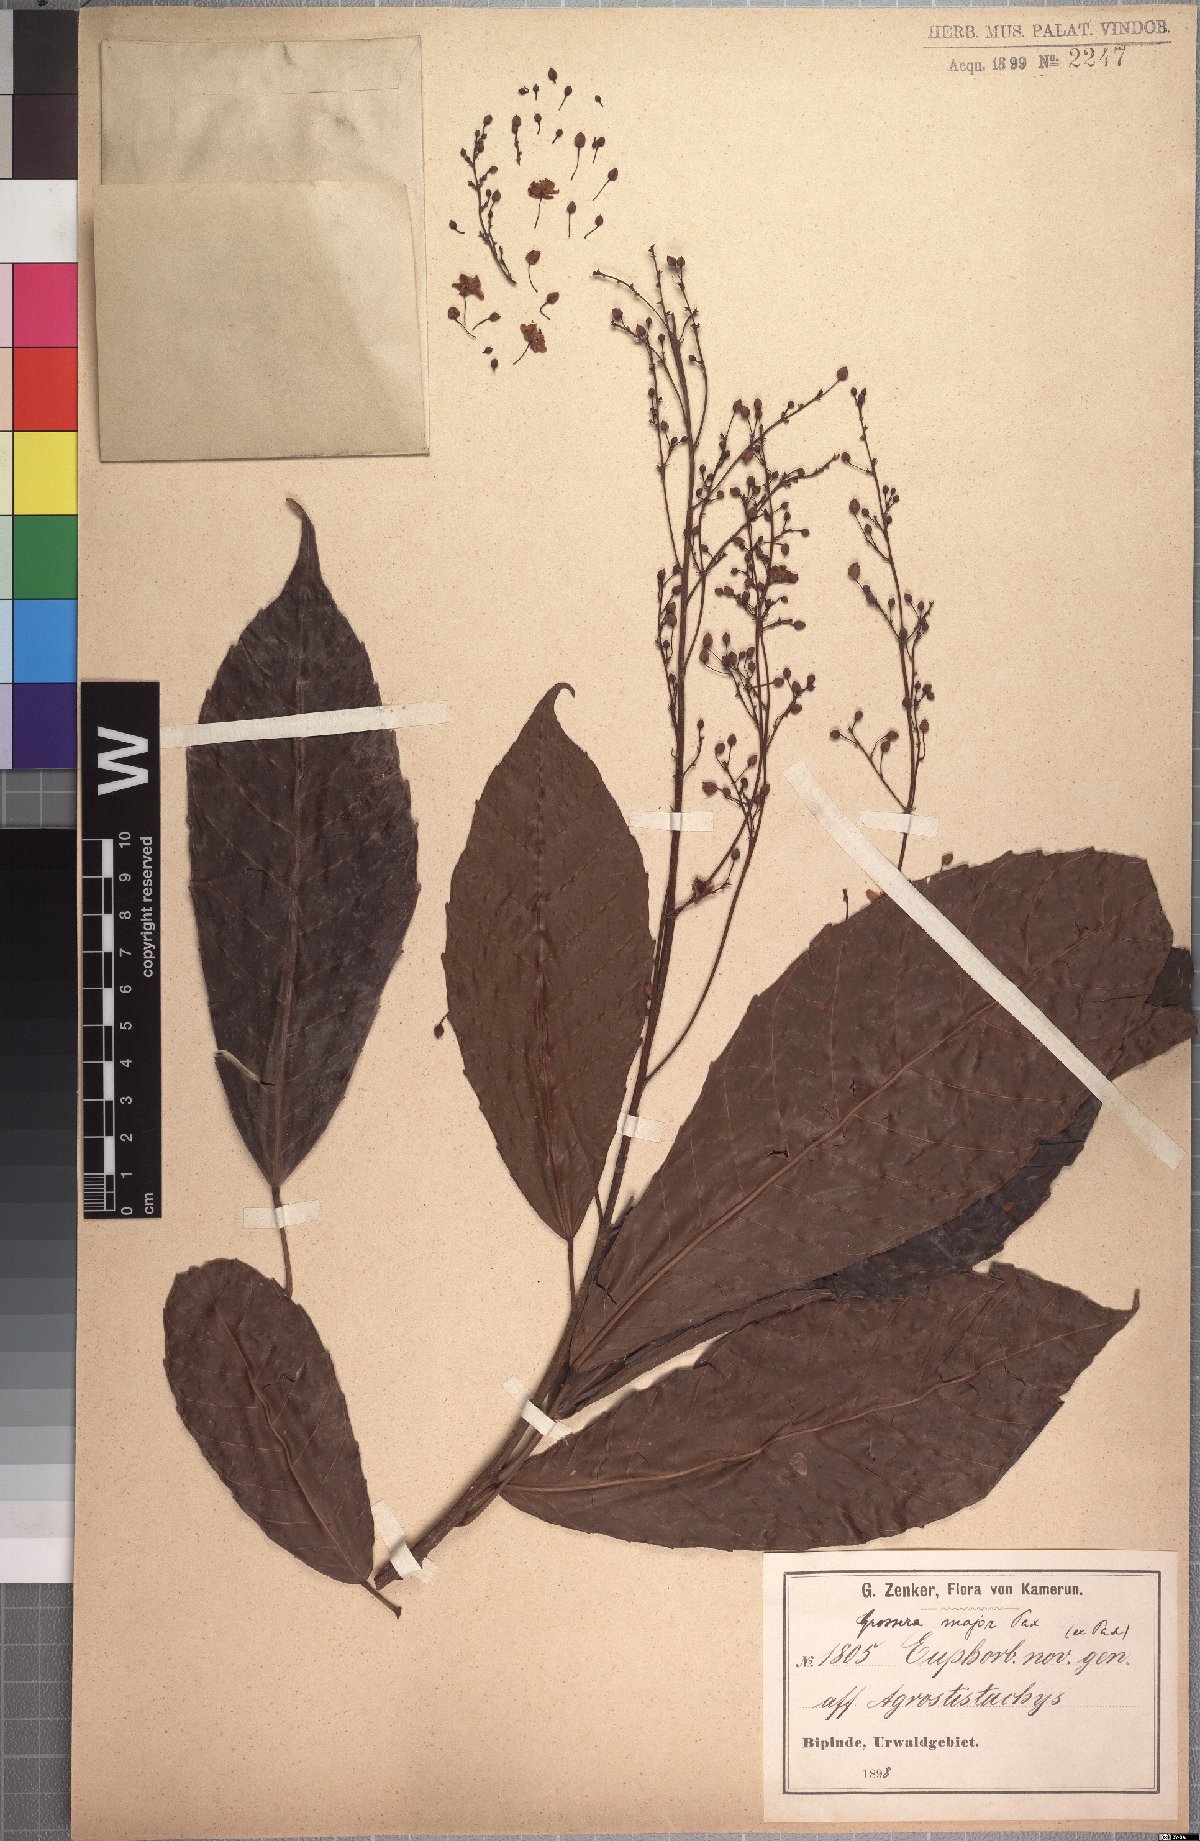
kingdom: Plantae
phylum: Tracheophyta
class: Magnoliopsida
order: Malpighiales
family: Euphorbiaceae
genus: Grossera
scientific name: Grossera major
